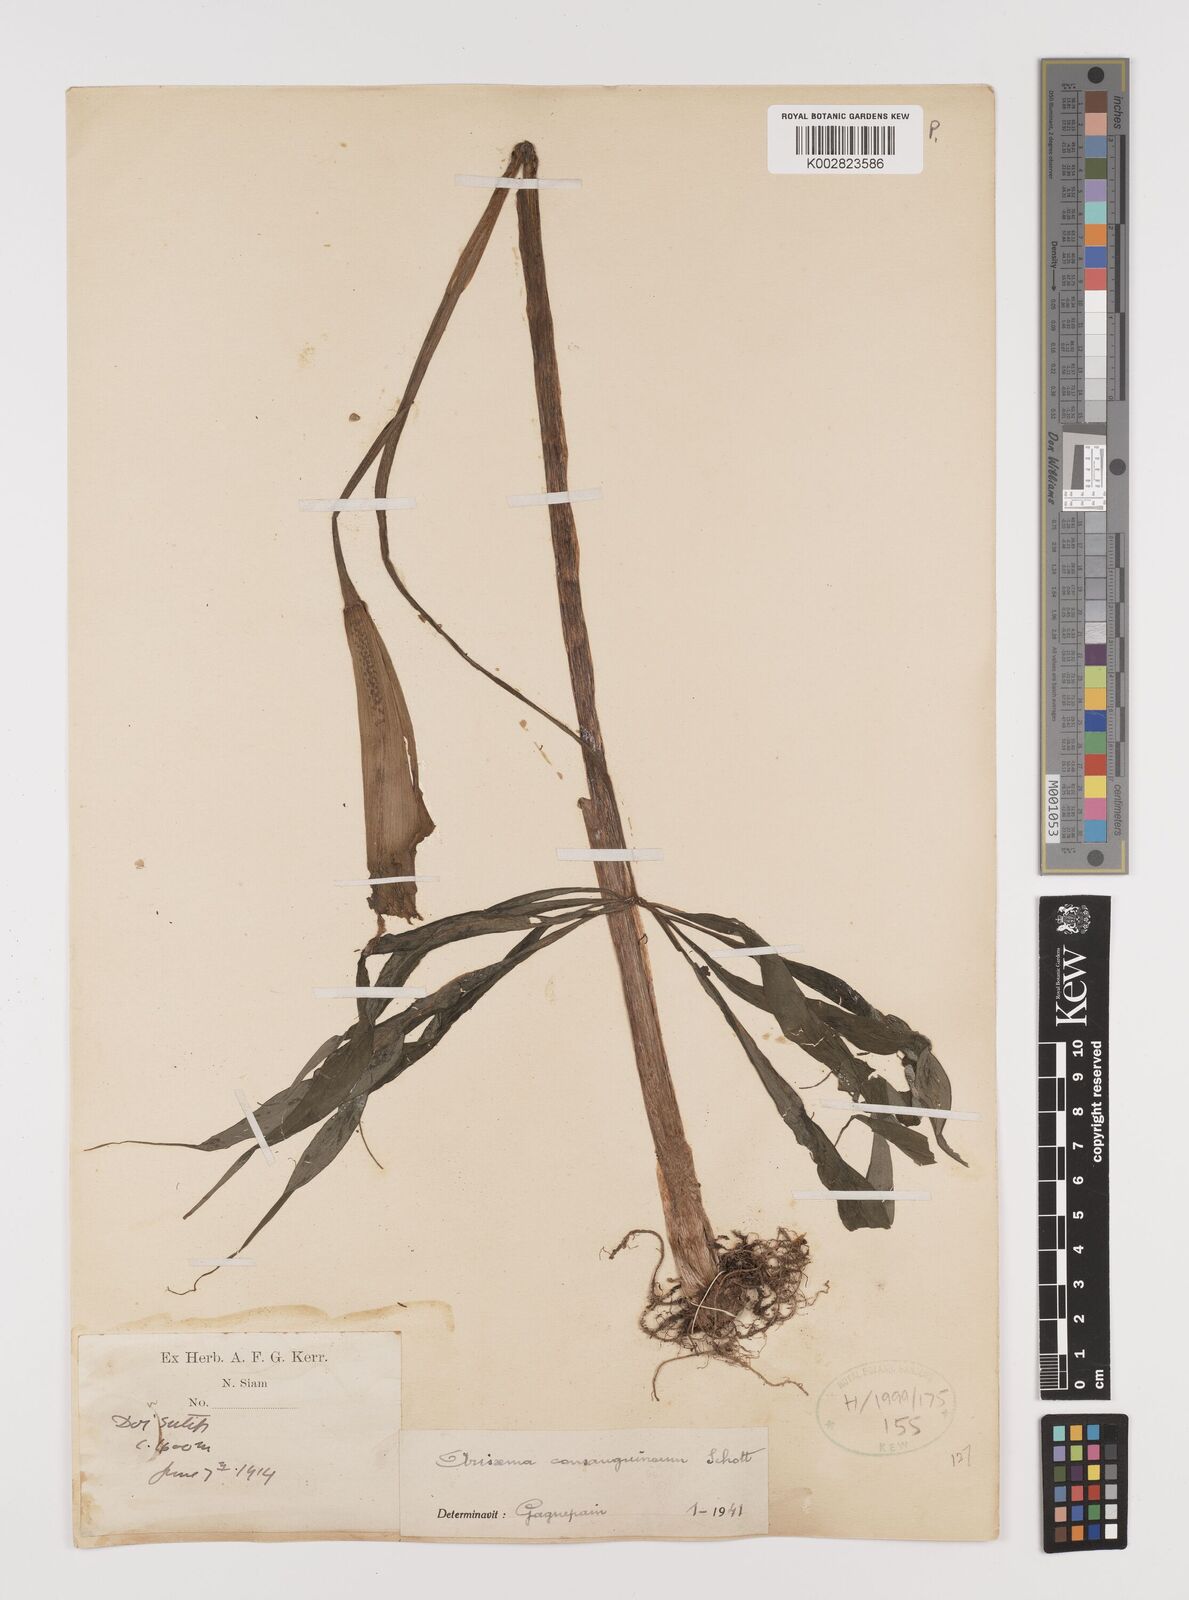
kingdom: Plantae
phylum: Tracheophyta
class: Liliopsida
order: Alismatales
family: Araceae
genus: Arisaema
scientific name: Arisaema consanguineum
